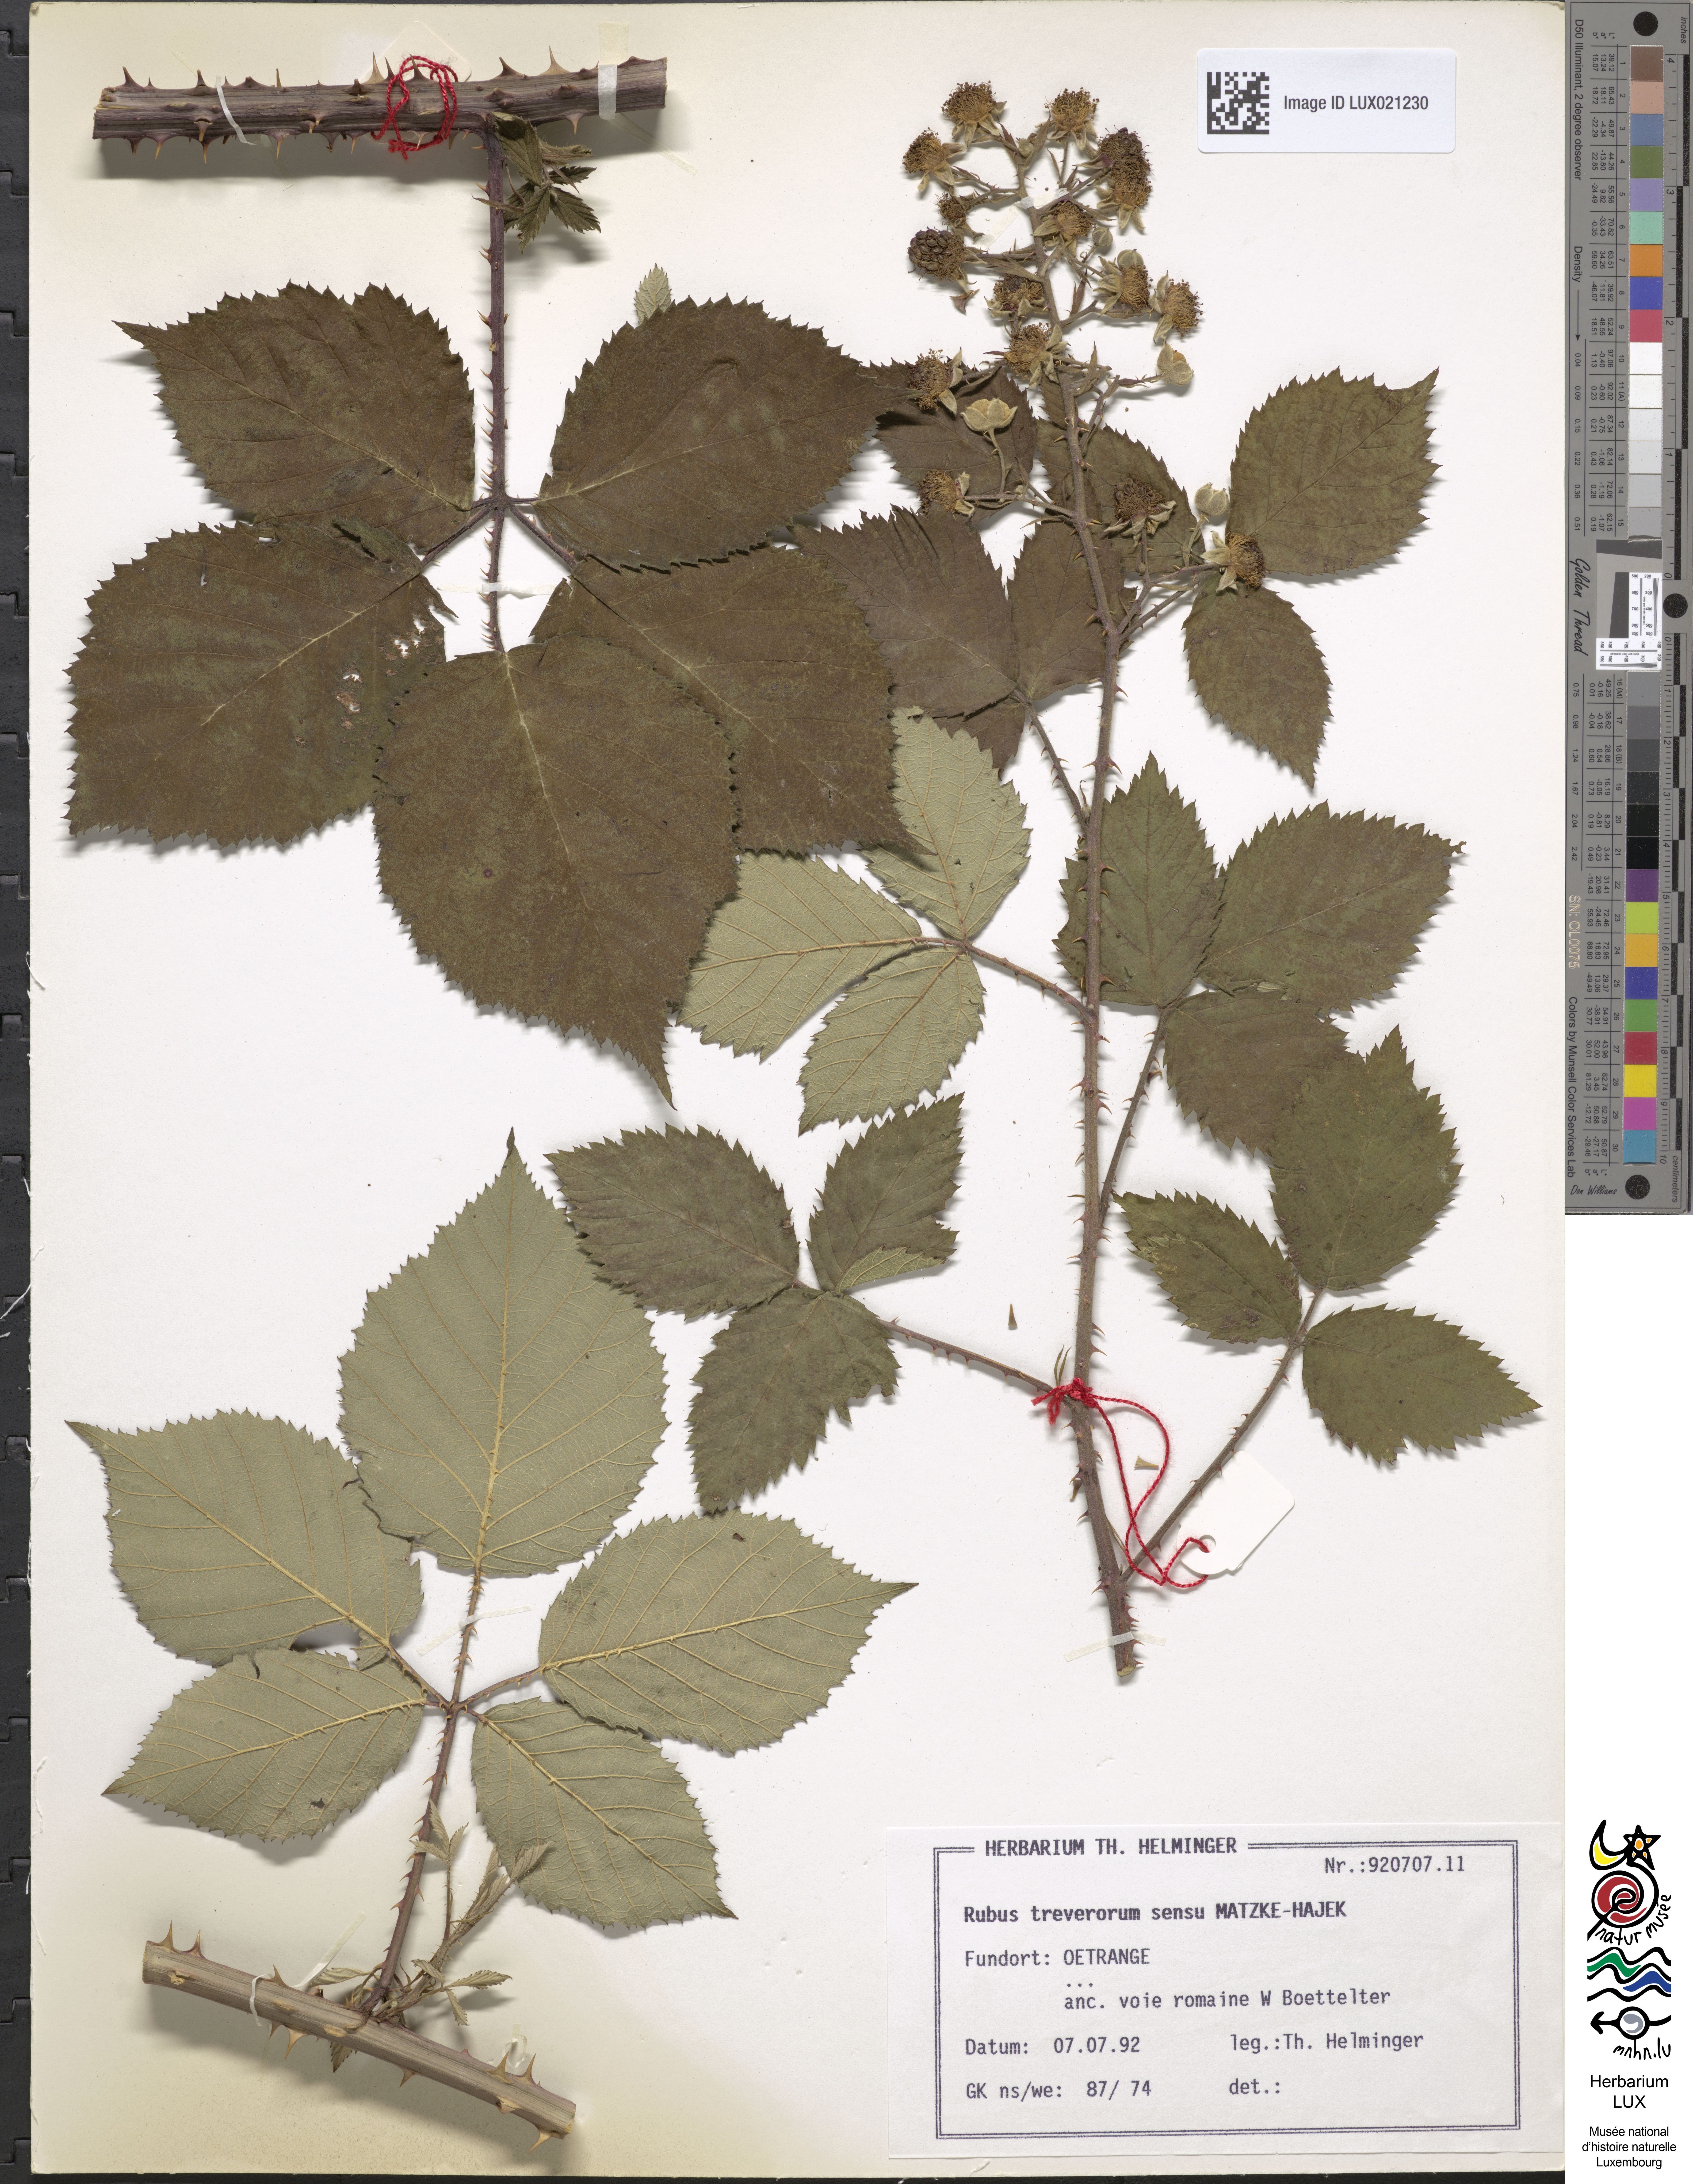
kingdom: Plantae
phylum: Tracheophyta
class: Magnoliopsida
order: Rosales
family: Rosaceae
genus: Rubus
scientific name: Rubus
